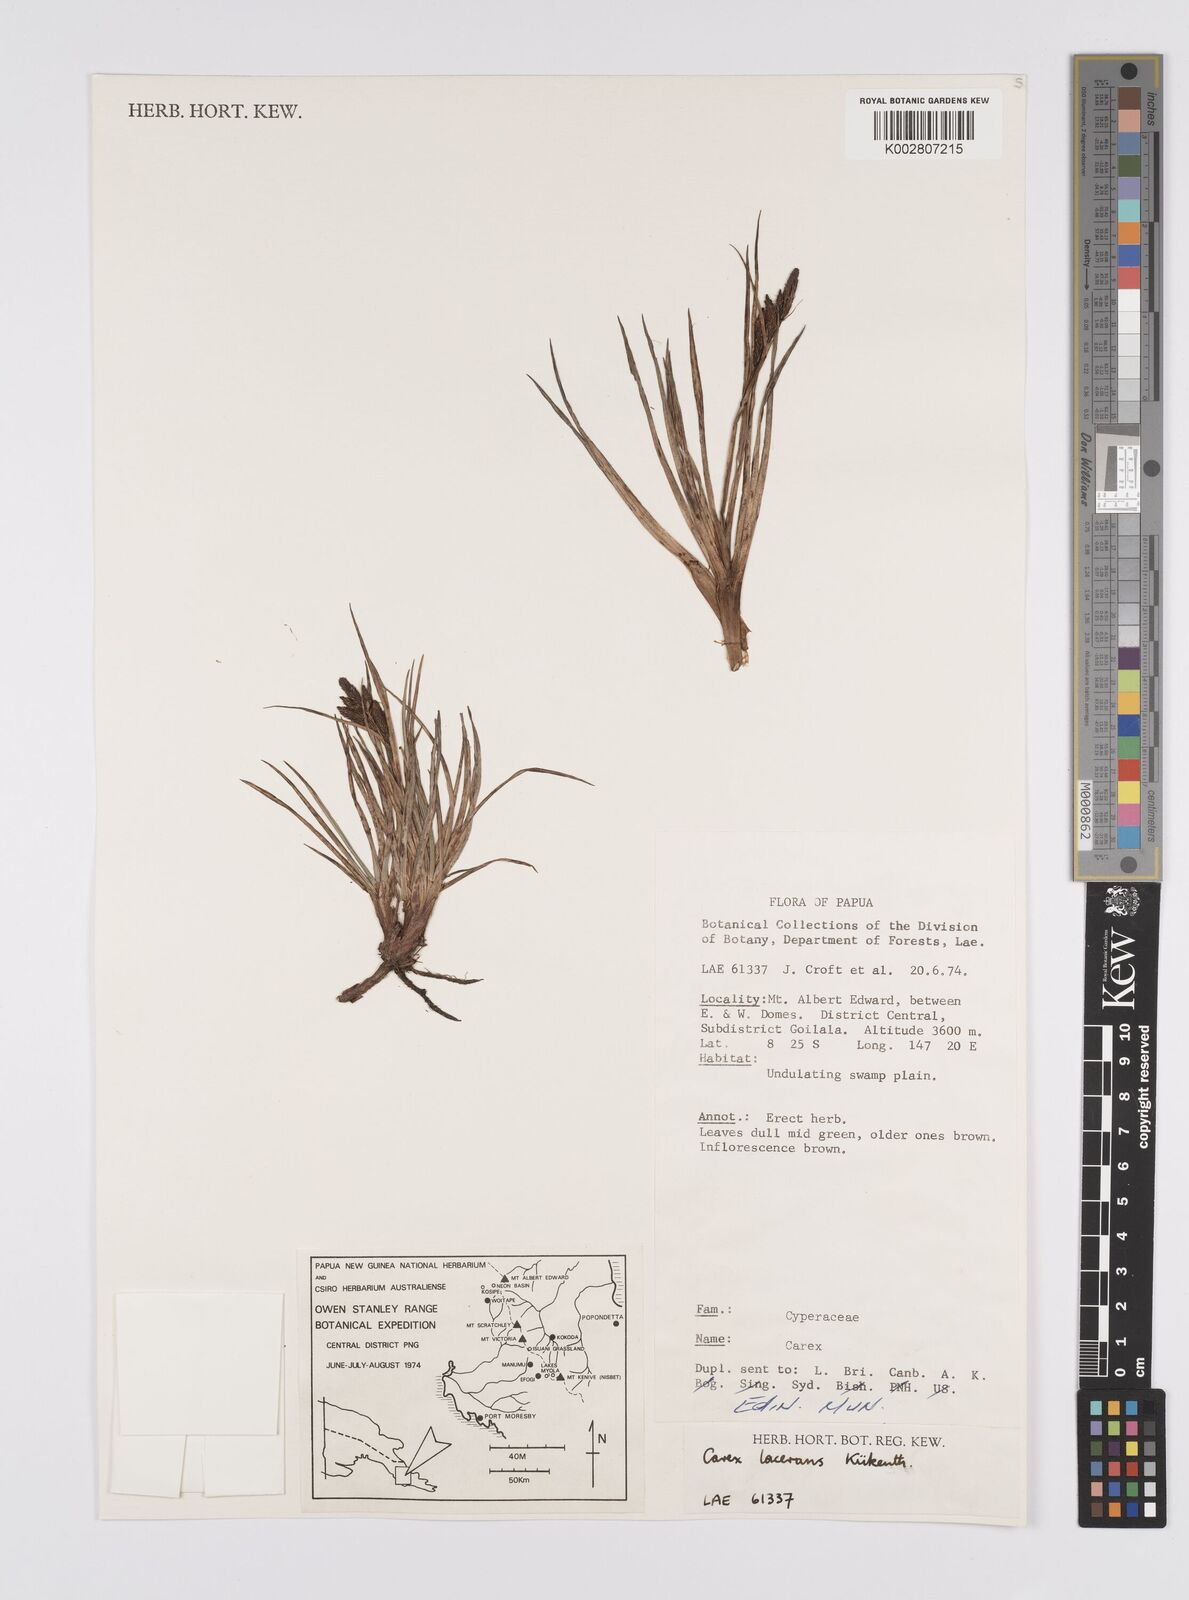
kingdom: Plantae
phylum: Tracheophyta
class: Liliopsida
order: Poales
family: Cyperaceae
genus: Carex
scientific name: Carex gaudichaudiana
